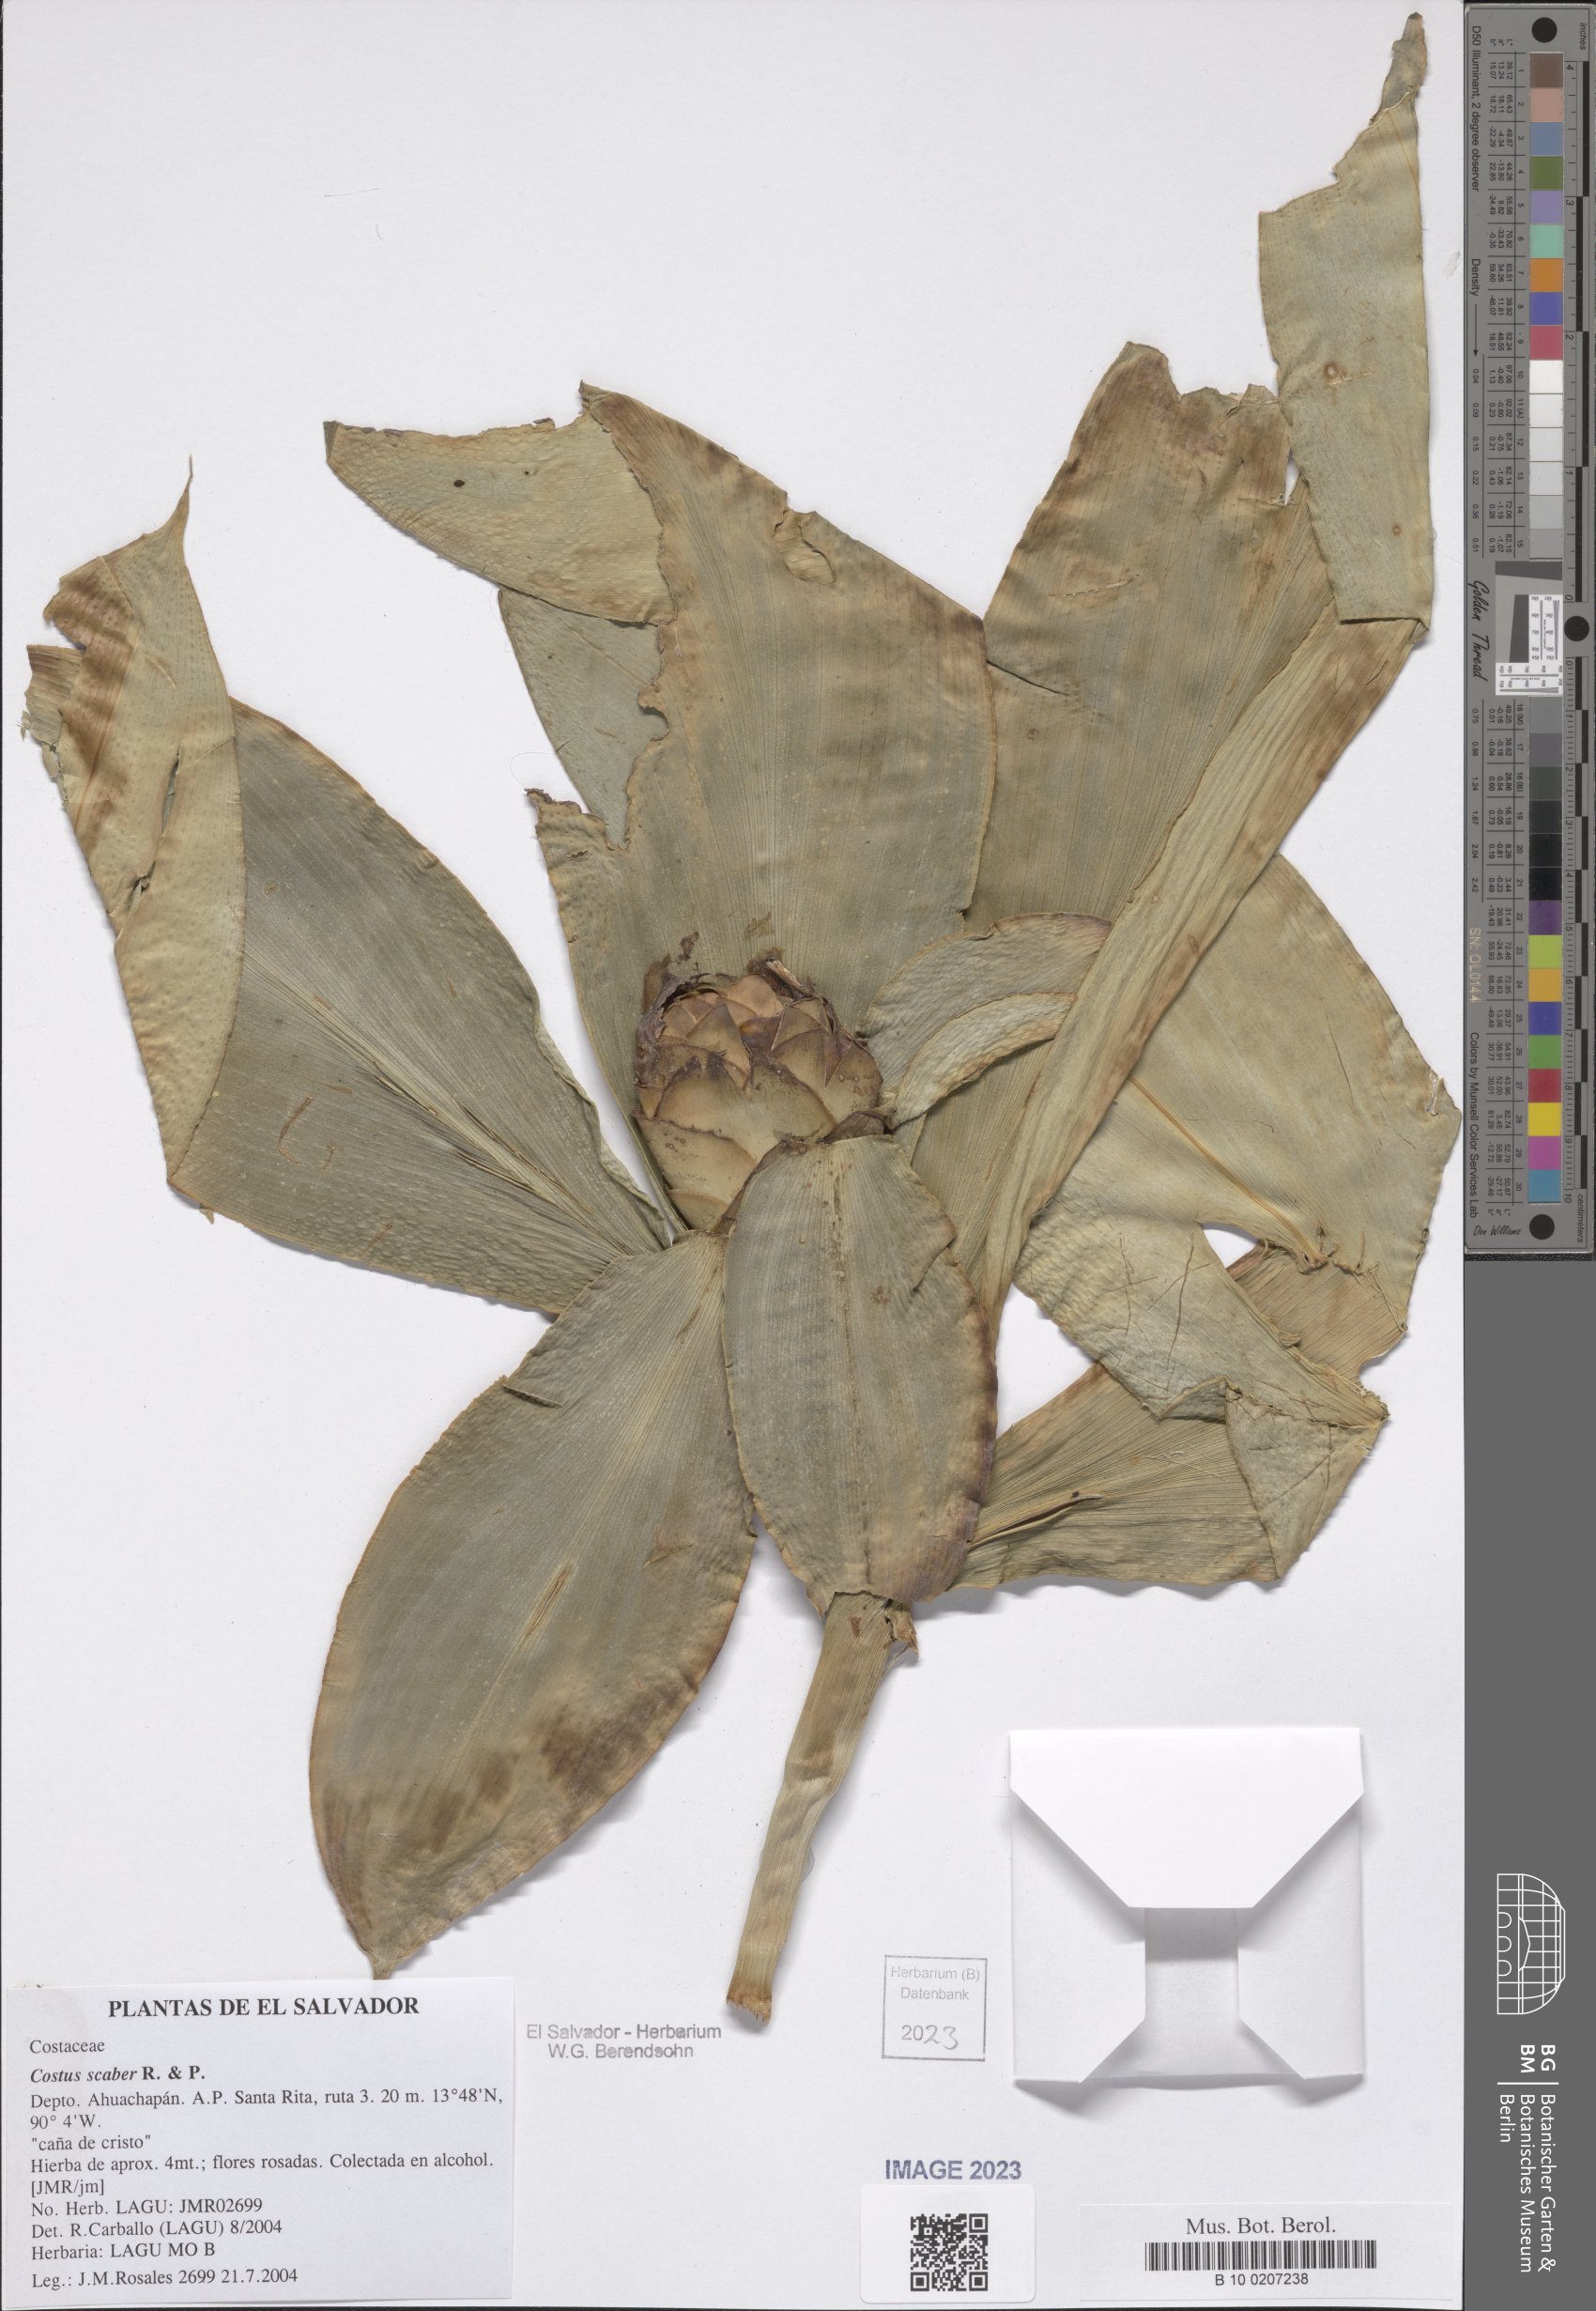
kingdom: Plantae
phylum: Tracheophyta
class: Liliopsida
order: Zingiberales
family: Costaceae
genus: Costus
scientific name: Costus scaber
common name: Spiral head ginger
